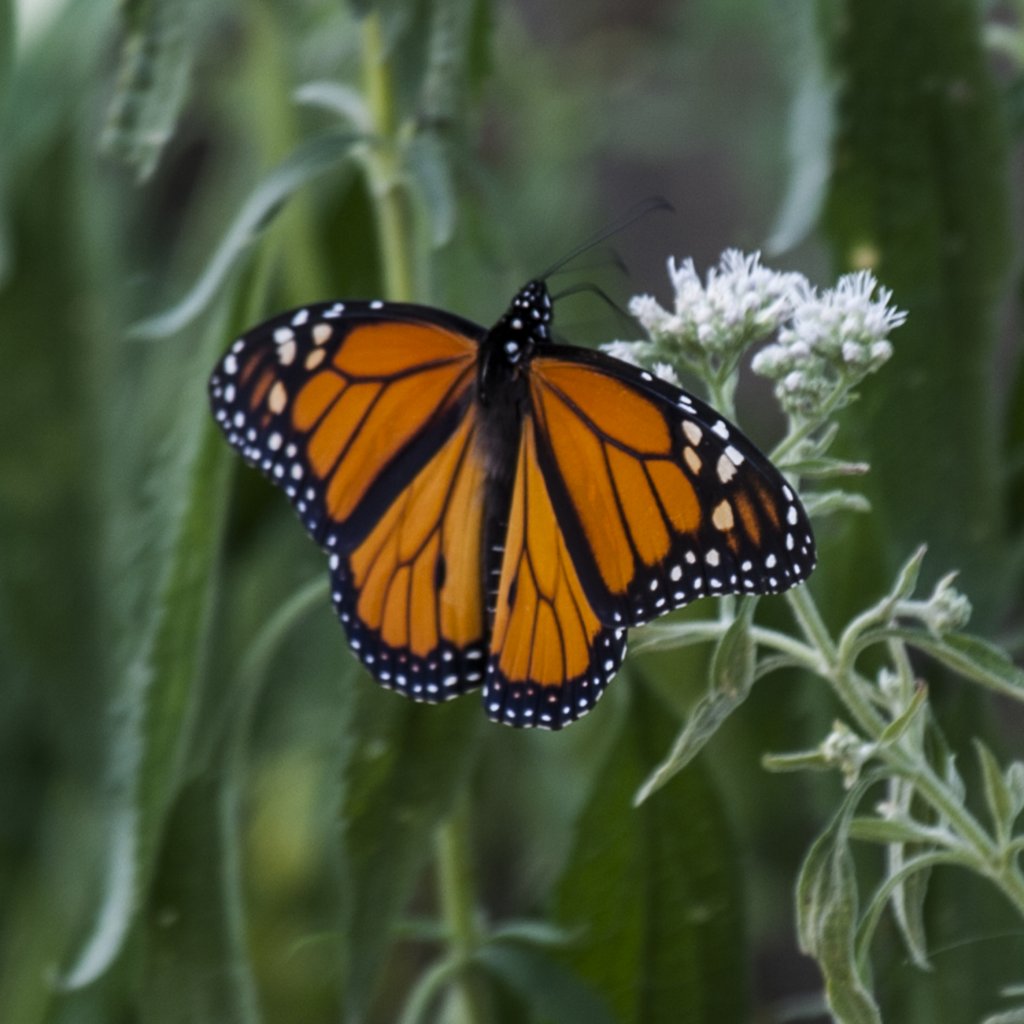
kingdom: Animalia
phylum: Arthropoda
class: Insecta
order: Lepidoptera
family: Nymphalidae
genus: Danaus
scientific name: Danaus plexippus
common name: Monarch
